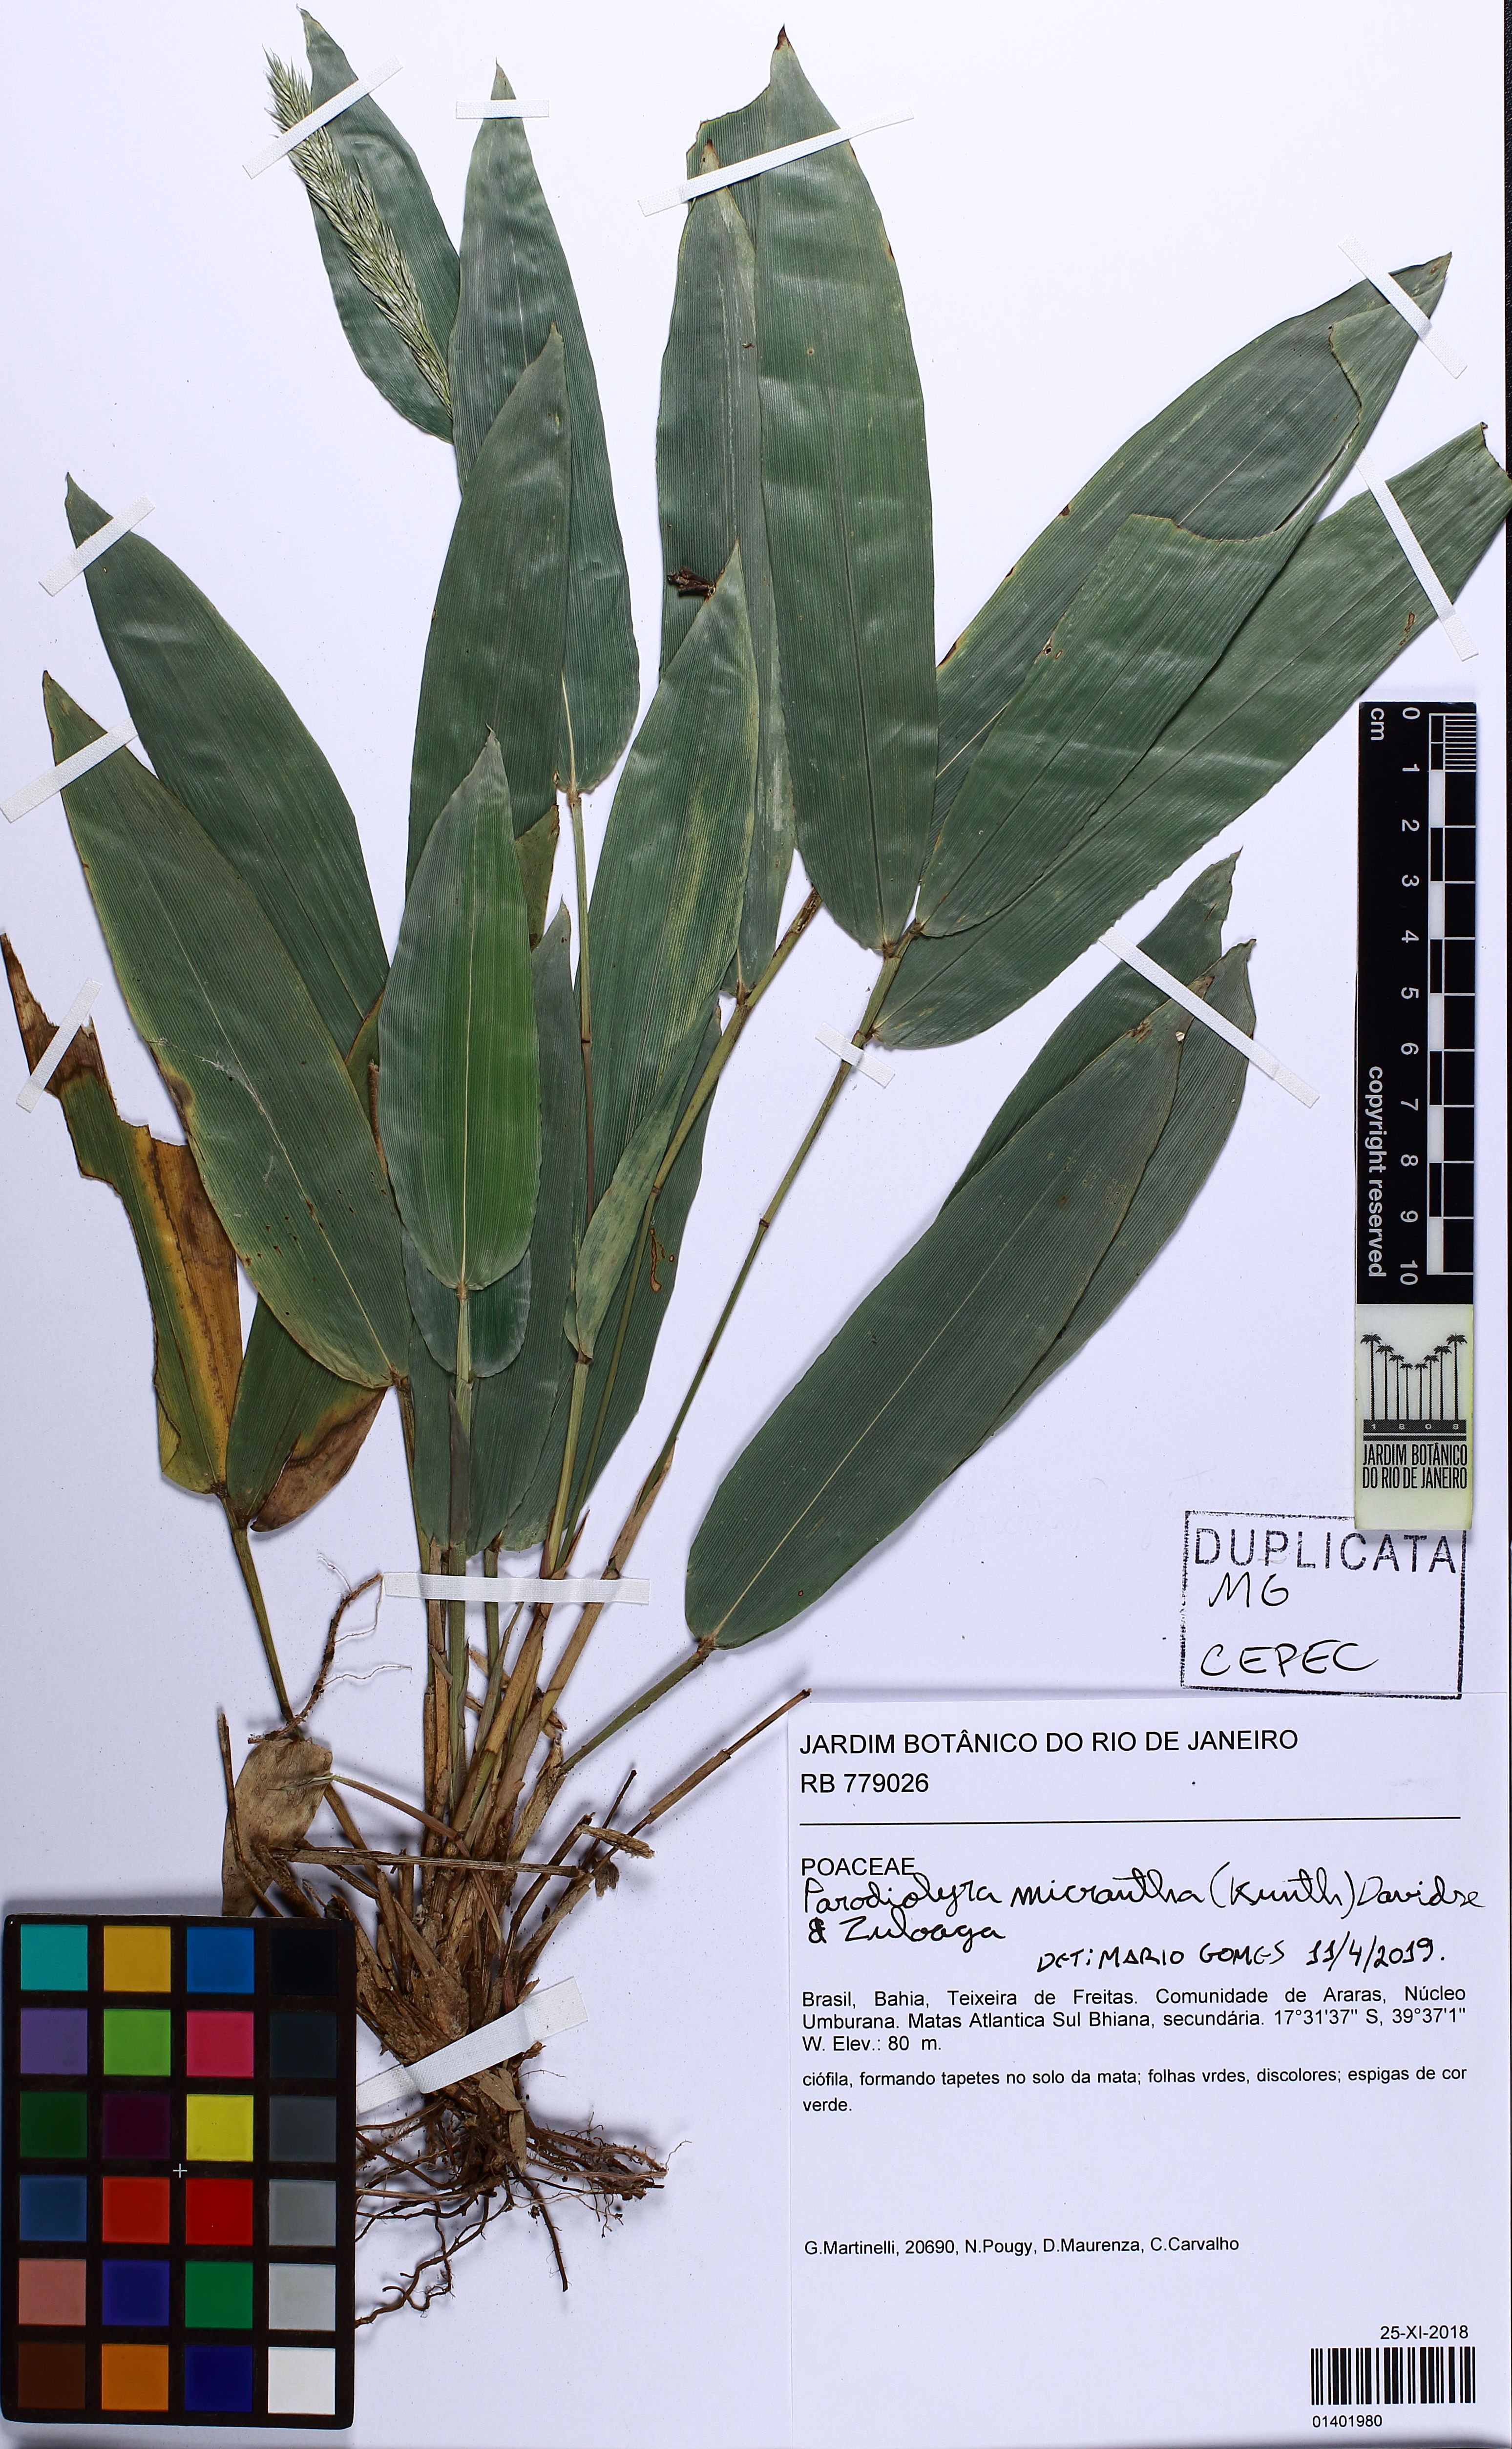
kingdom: Plantae
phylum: Tracheophyta
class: Liliopsida
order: Poales
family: Poaceae
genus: Taquara
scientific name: Taquara micrantha
